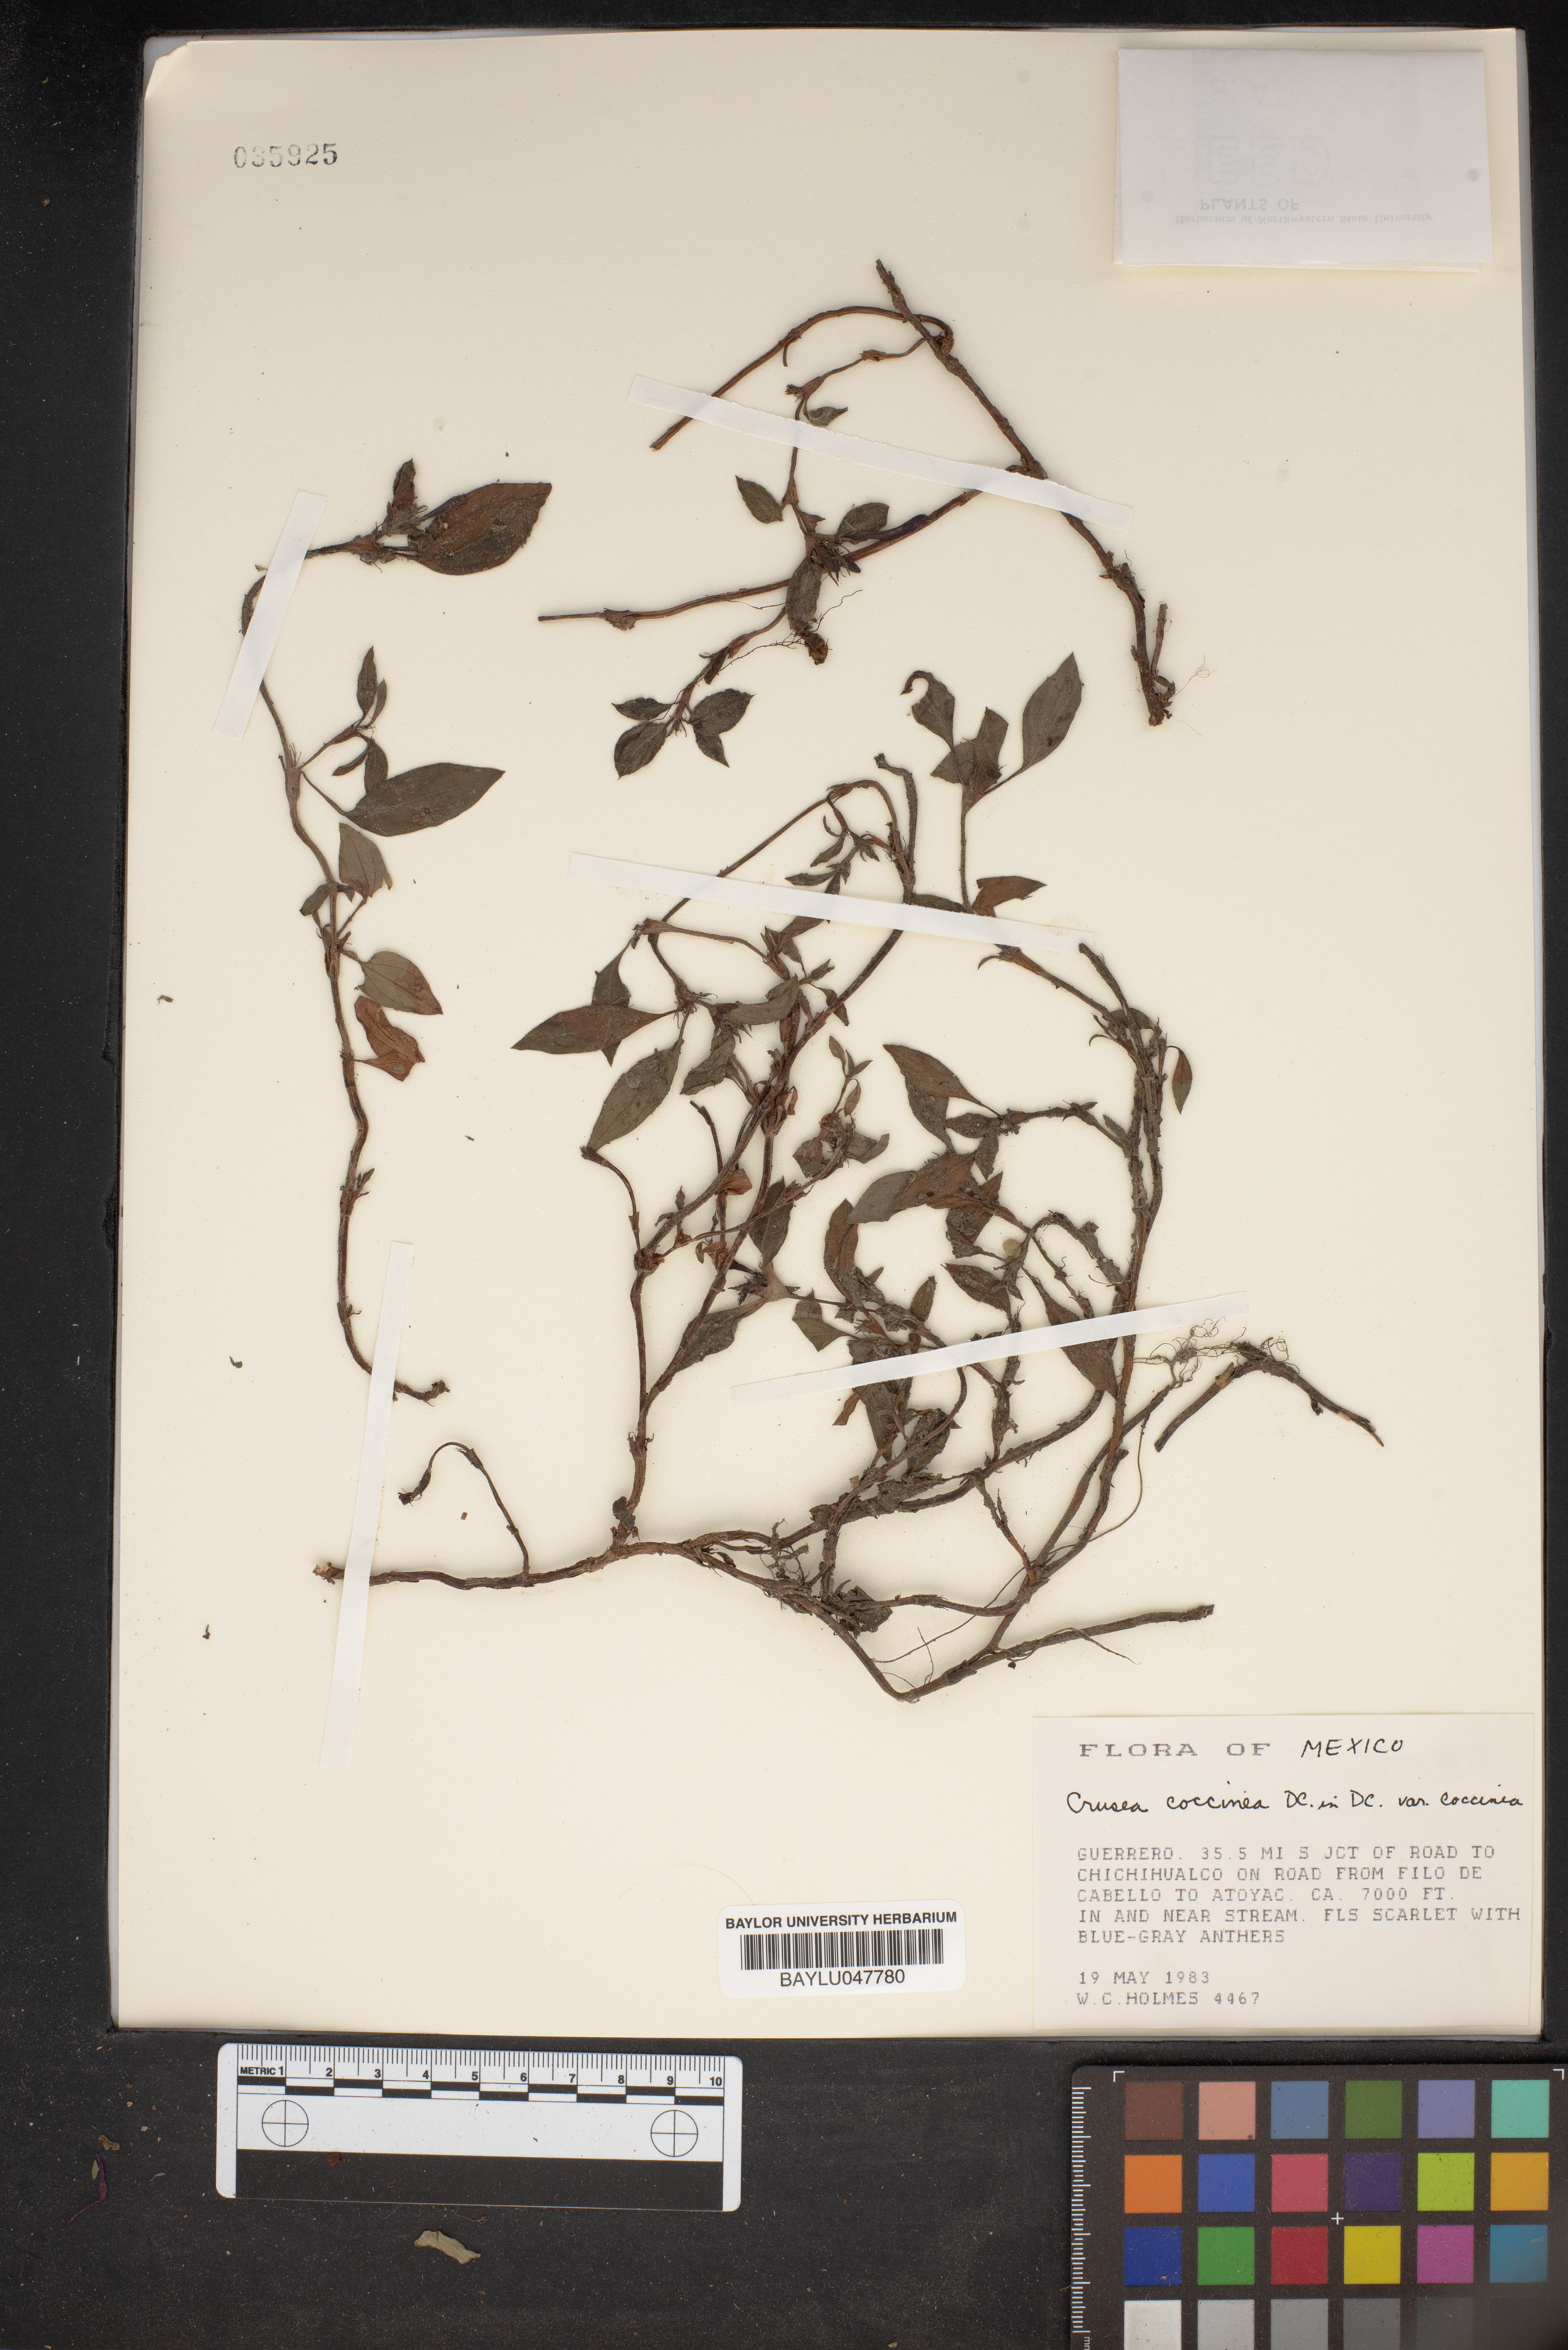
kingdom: Plantae
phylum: Tracheophyta
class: Magnoliopsida
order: Gentianales
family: Rubiaceae
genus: Crusea
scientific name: Crusea coccinea
